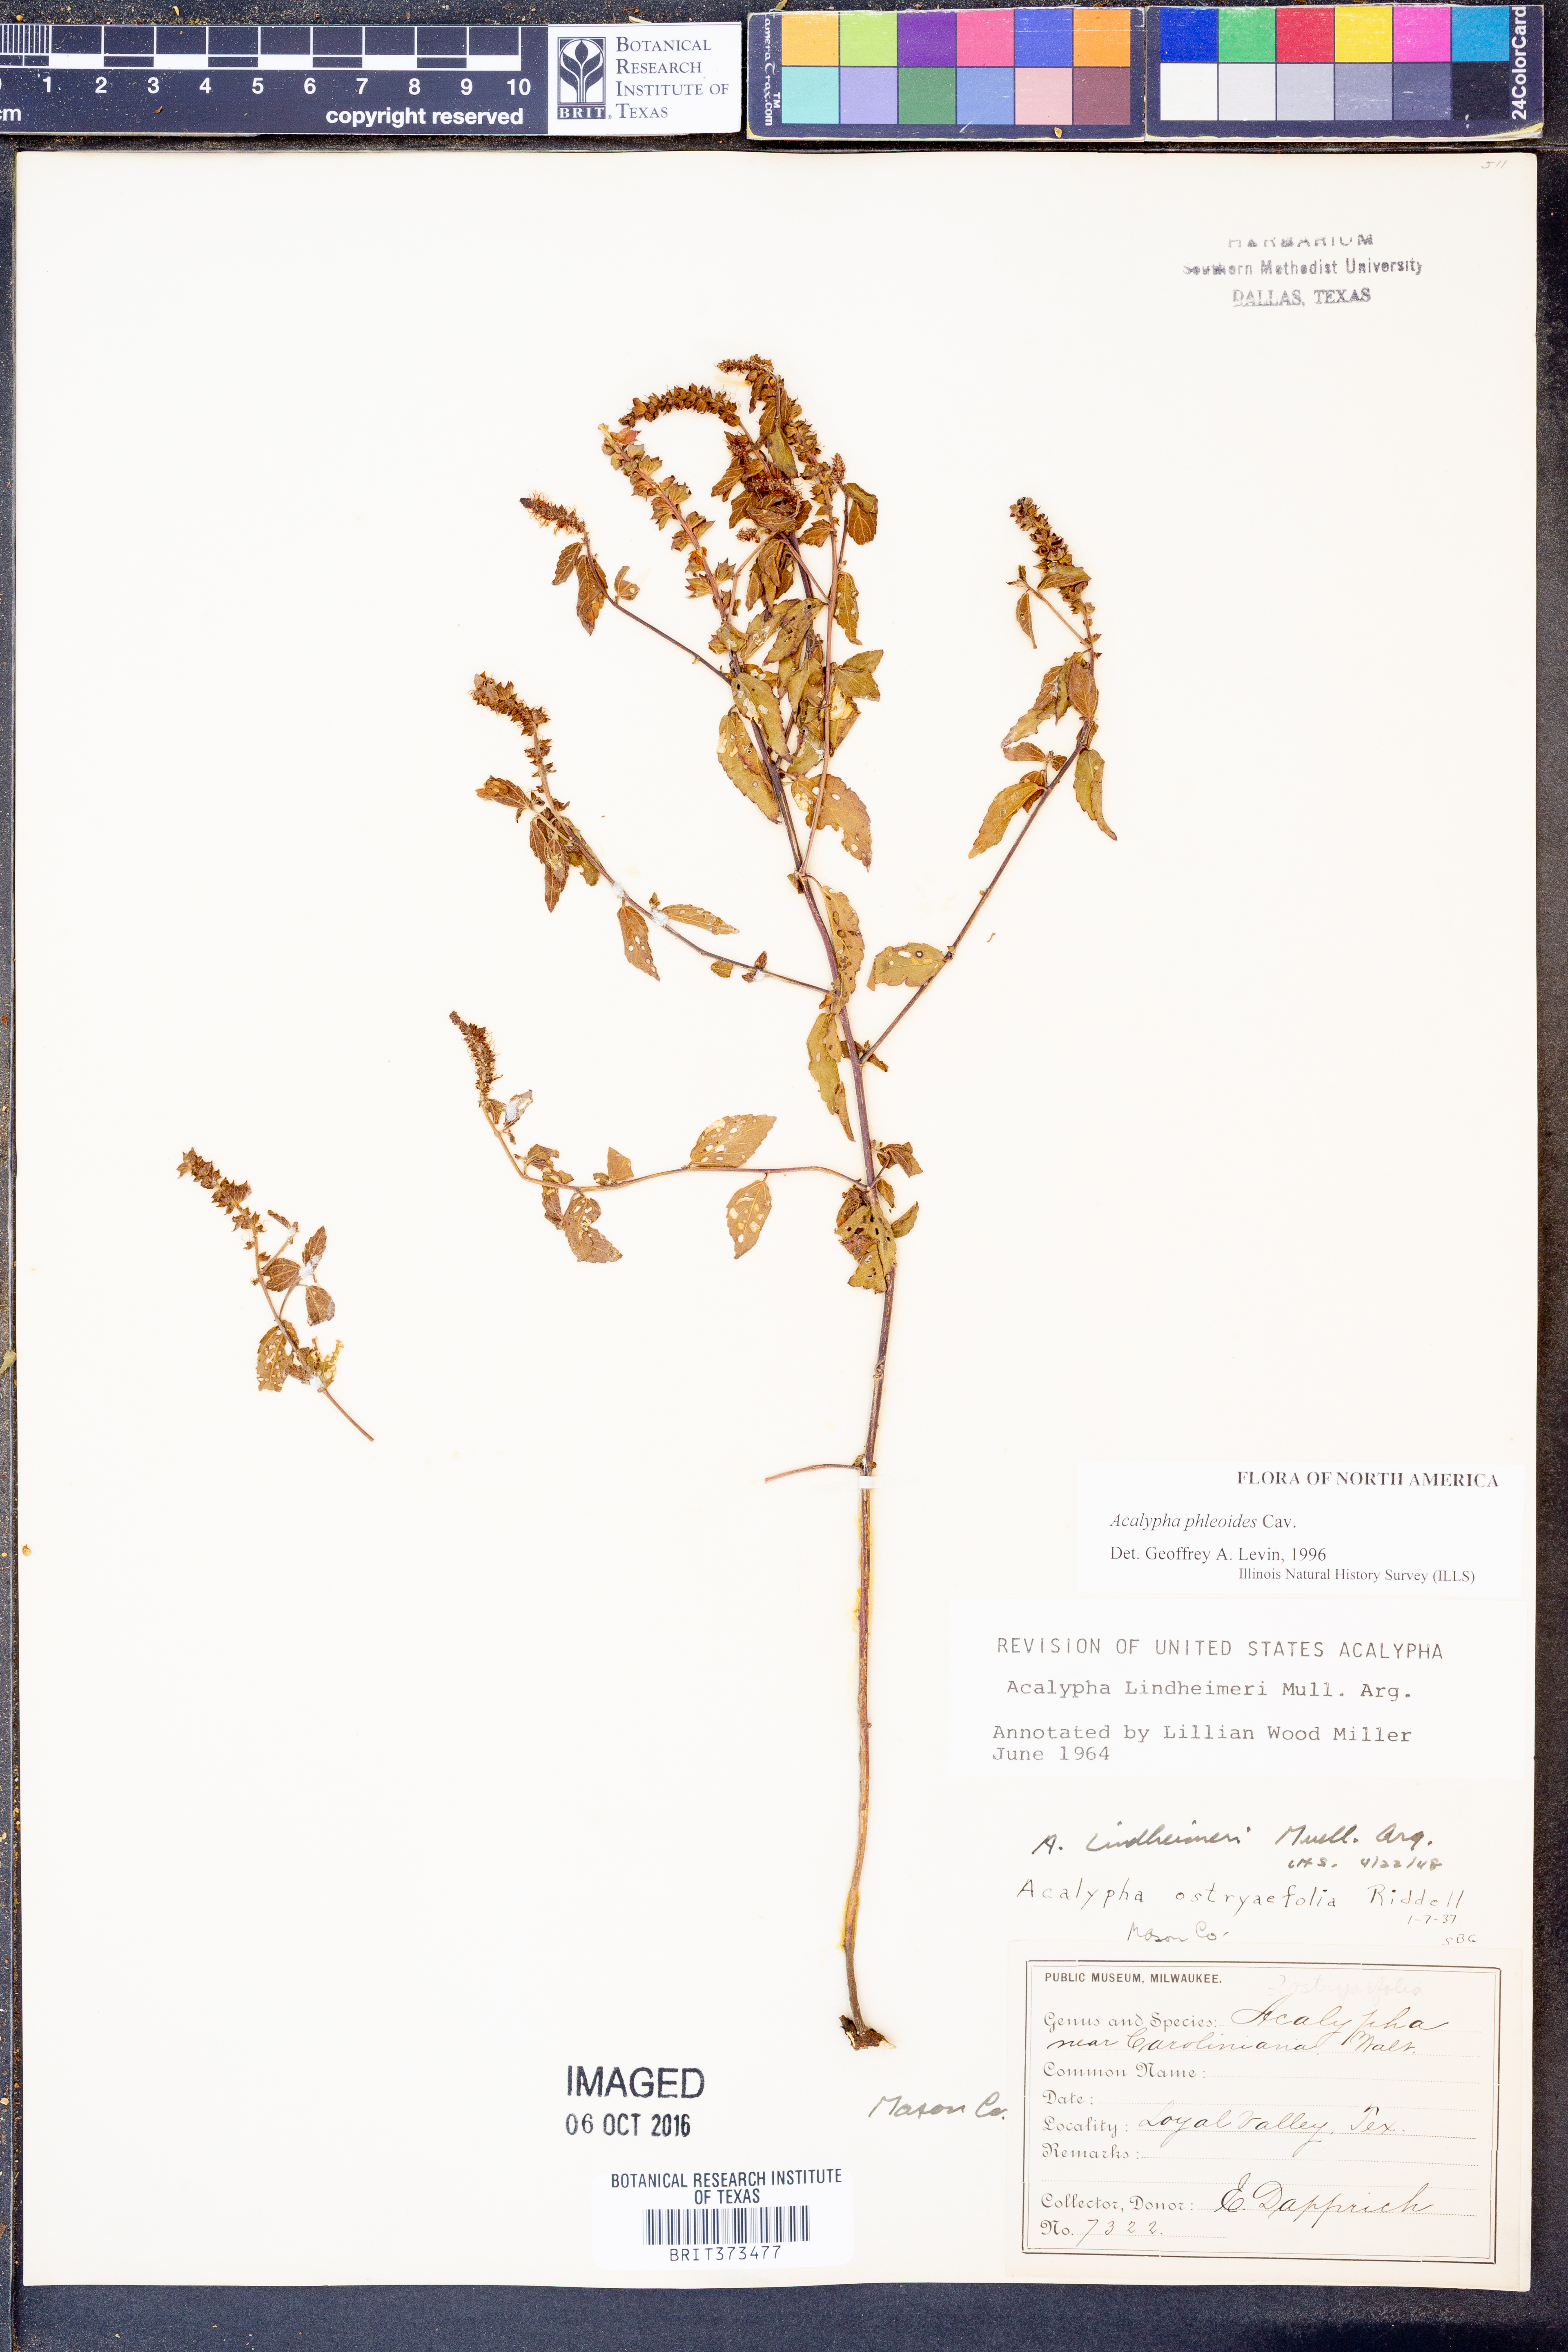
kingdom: Plantae
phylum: Tracheophyta
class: Magnoliopsida
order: Malpighiales
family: Euphorbiaceae
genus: Acalypha
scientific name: Acalypha phleoides
